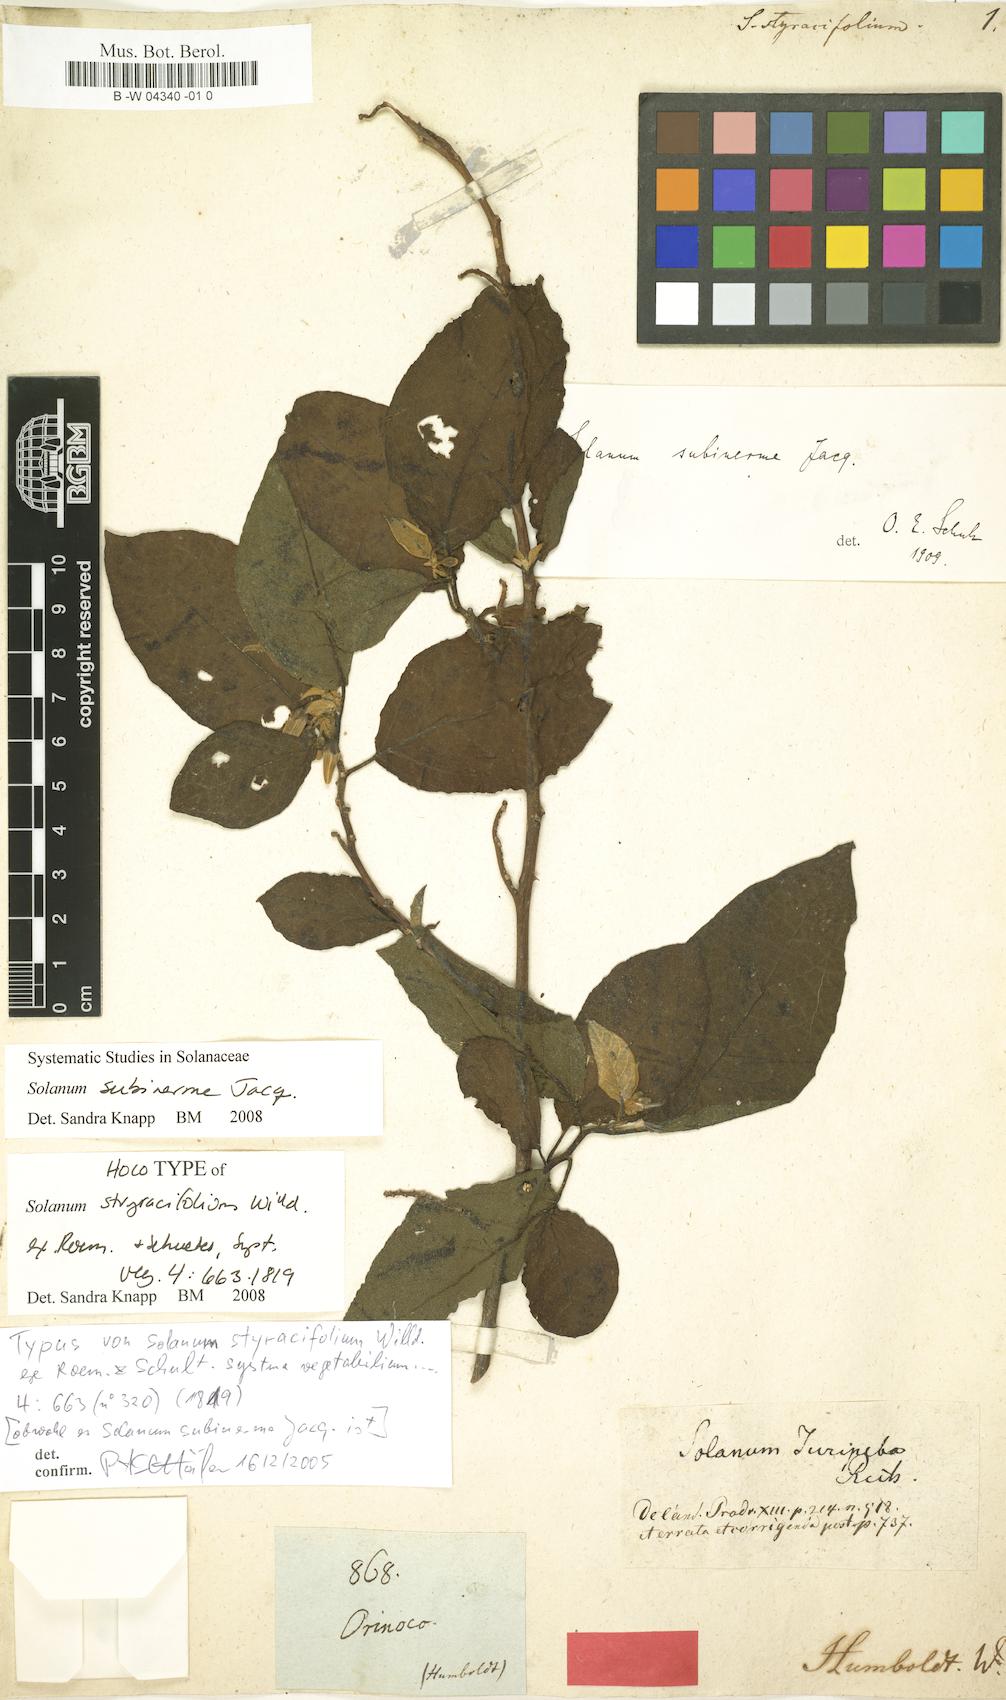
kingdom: Plantae
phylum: Tracheophyta
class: Magnoliopsida
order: Solanales
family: Solanaceae
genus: Solanum
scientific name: Solanum subinerme
